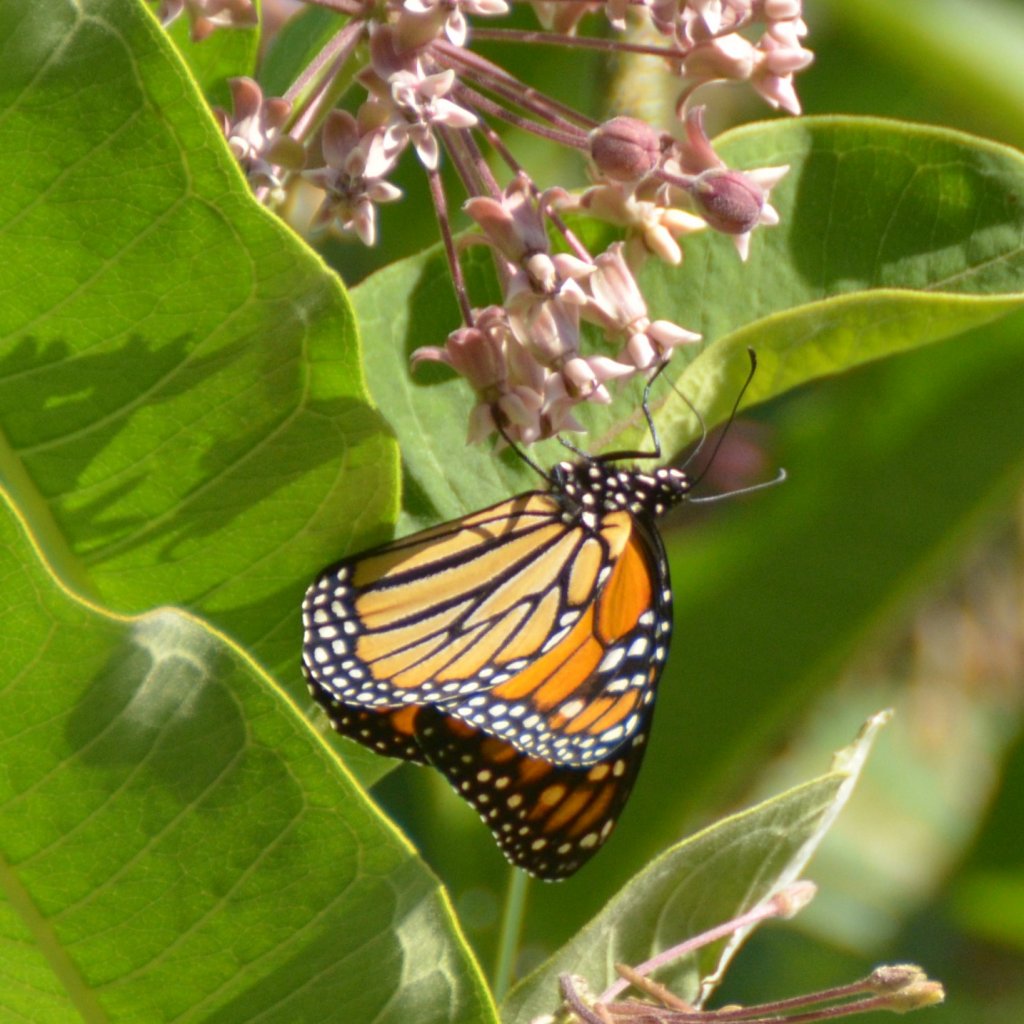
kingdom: Animalia
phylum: Arthropoda
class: Insecta
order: Lepidoptera
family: Nymphalidae
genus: Danaus
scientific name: Danaus plexippus
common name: Monarch
